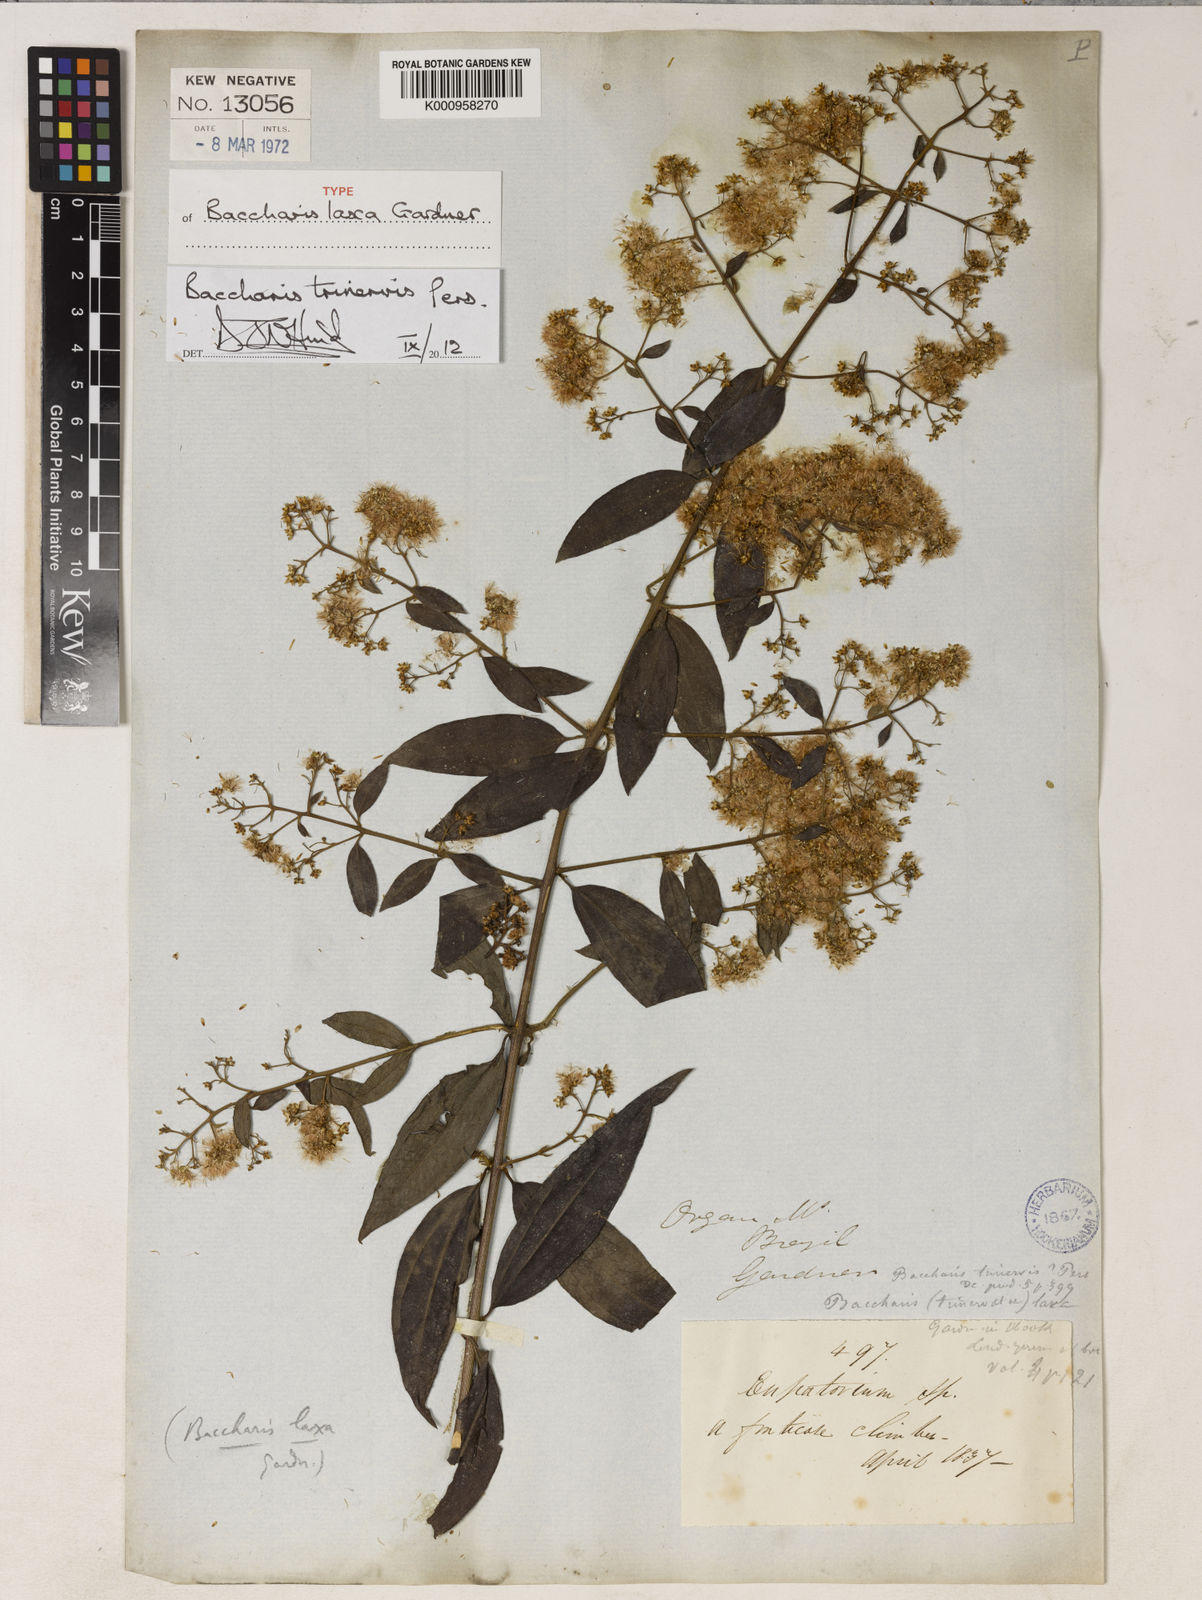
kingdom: Plantae
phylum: Tracheophyta
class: Magnoliopsida
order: Asterales
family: Asteraceae
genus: Baccharis
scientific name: Baccharis trinervis
